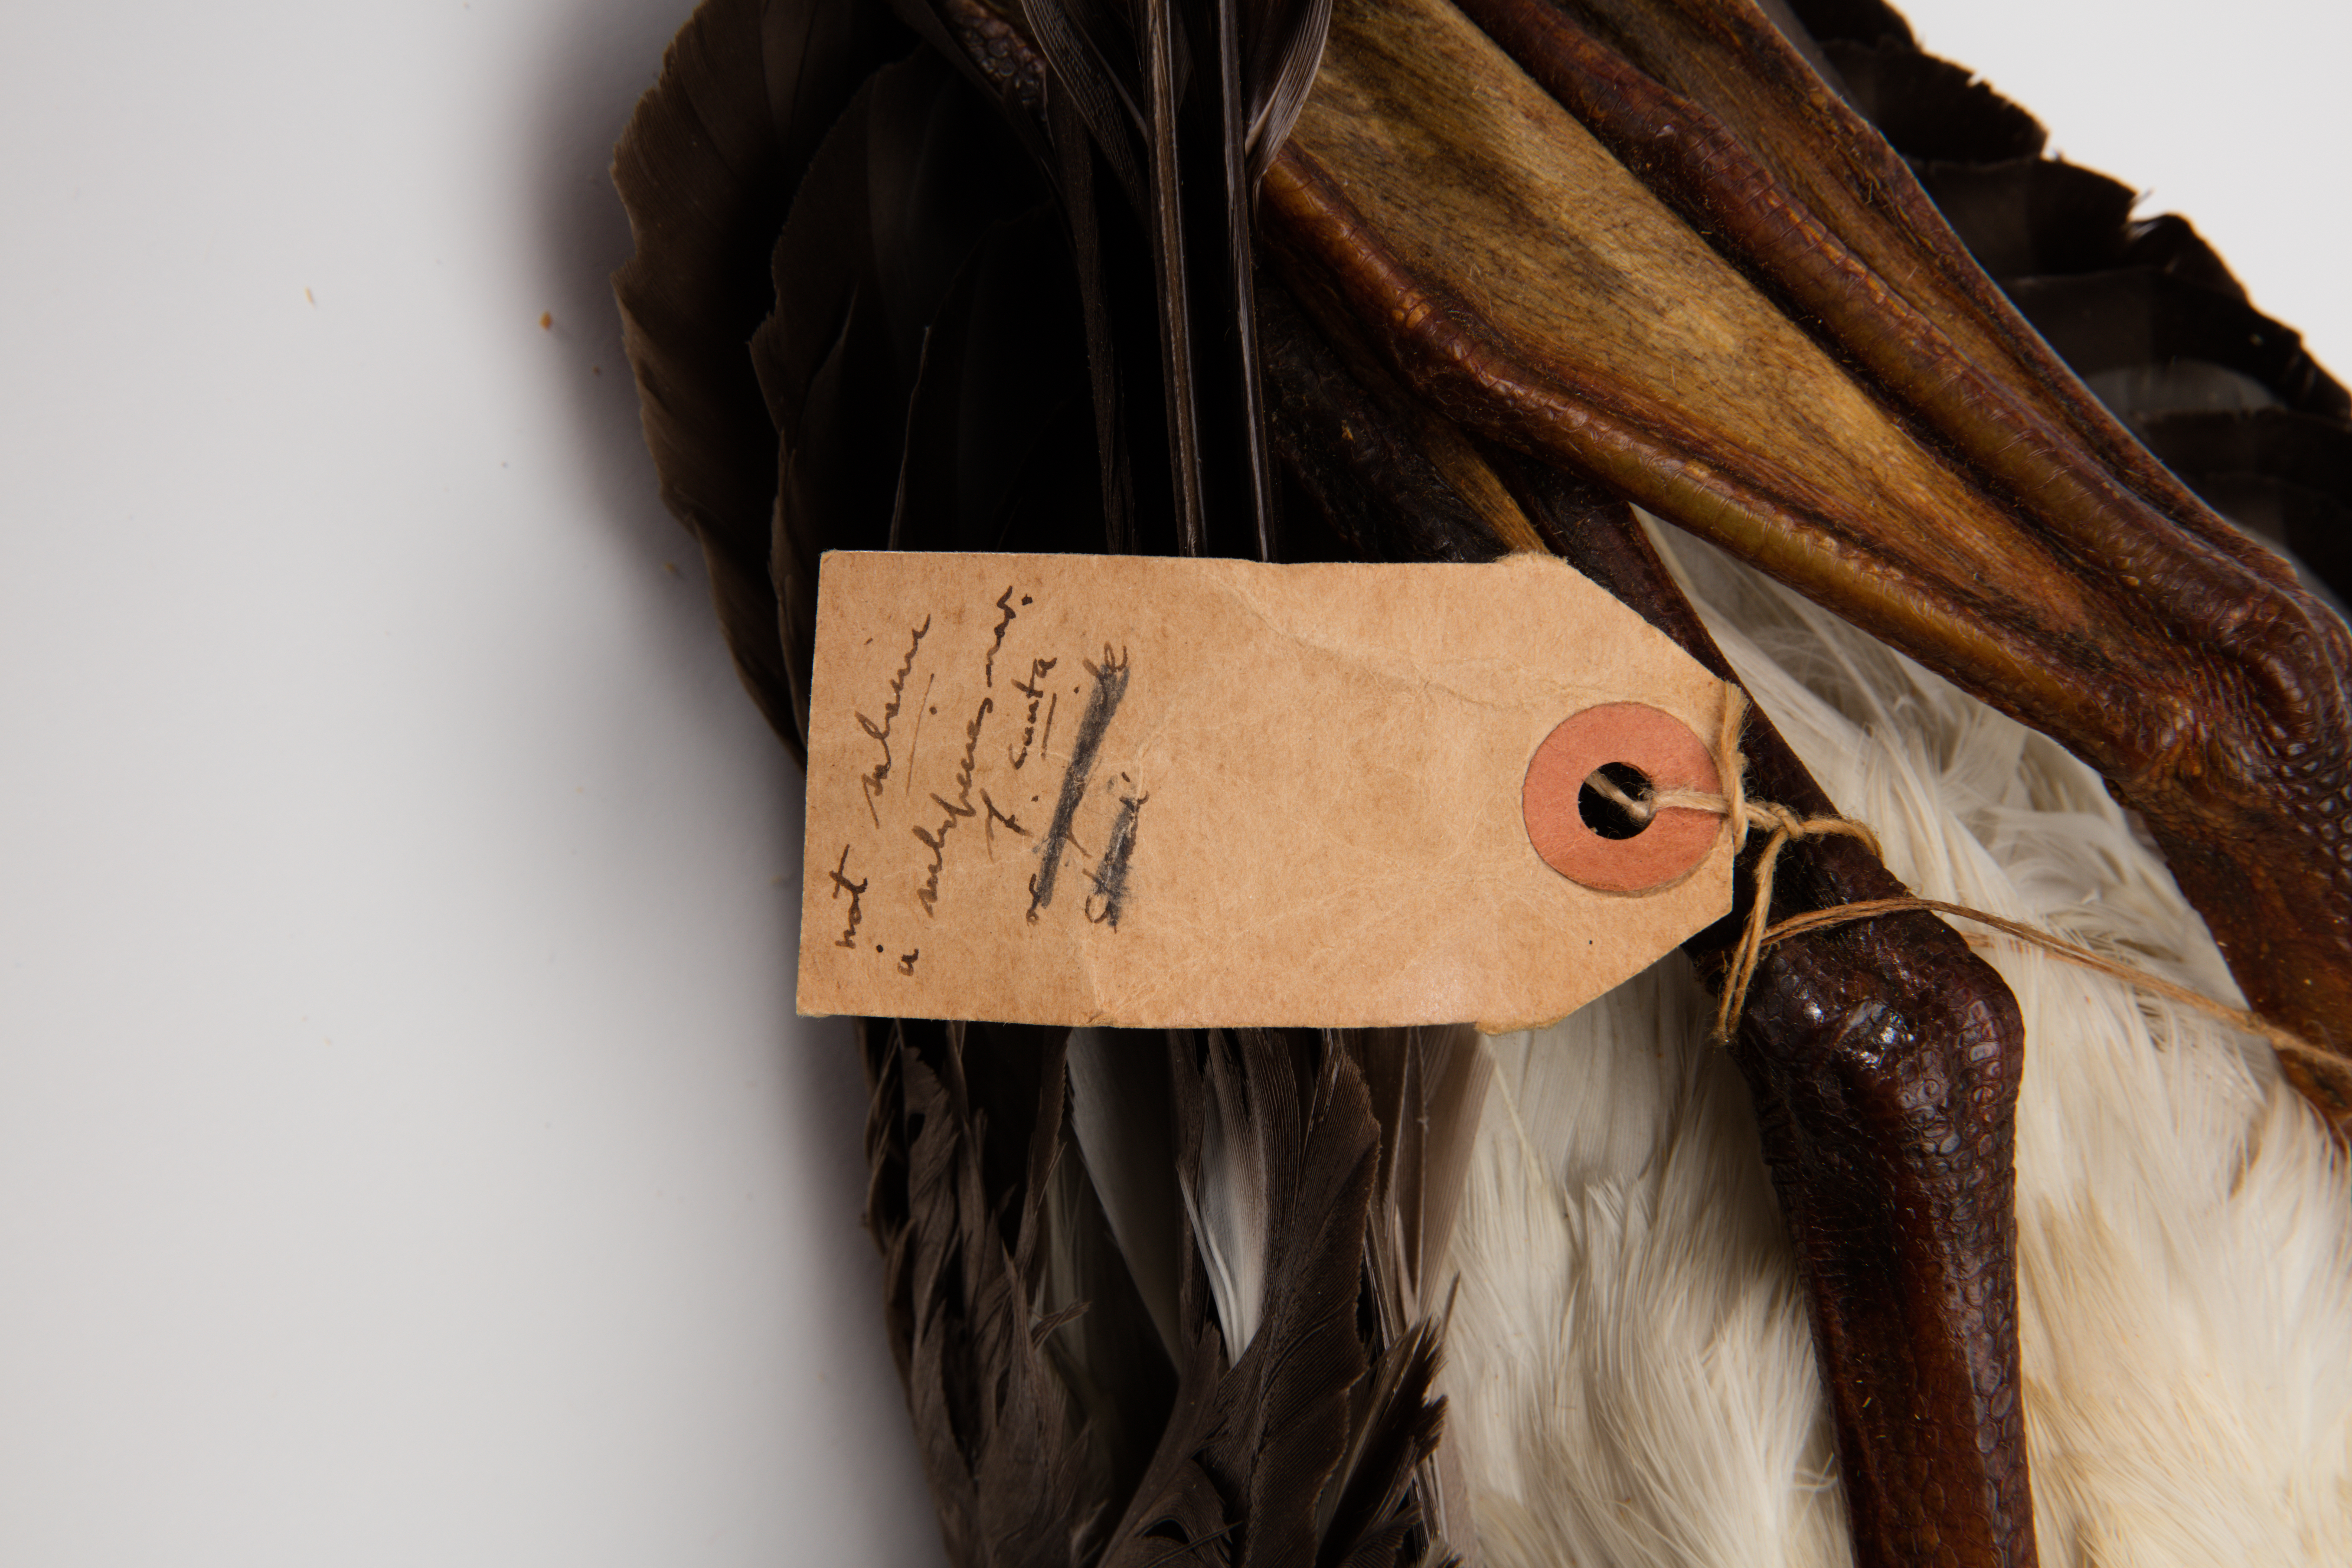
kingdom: Animalia
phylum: Chordata
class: Aves
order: Procellariiformes
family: Diomedeidae
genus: Thalassarche
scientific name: Thalassarche cauta
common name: Shy albatross
